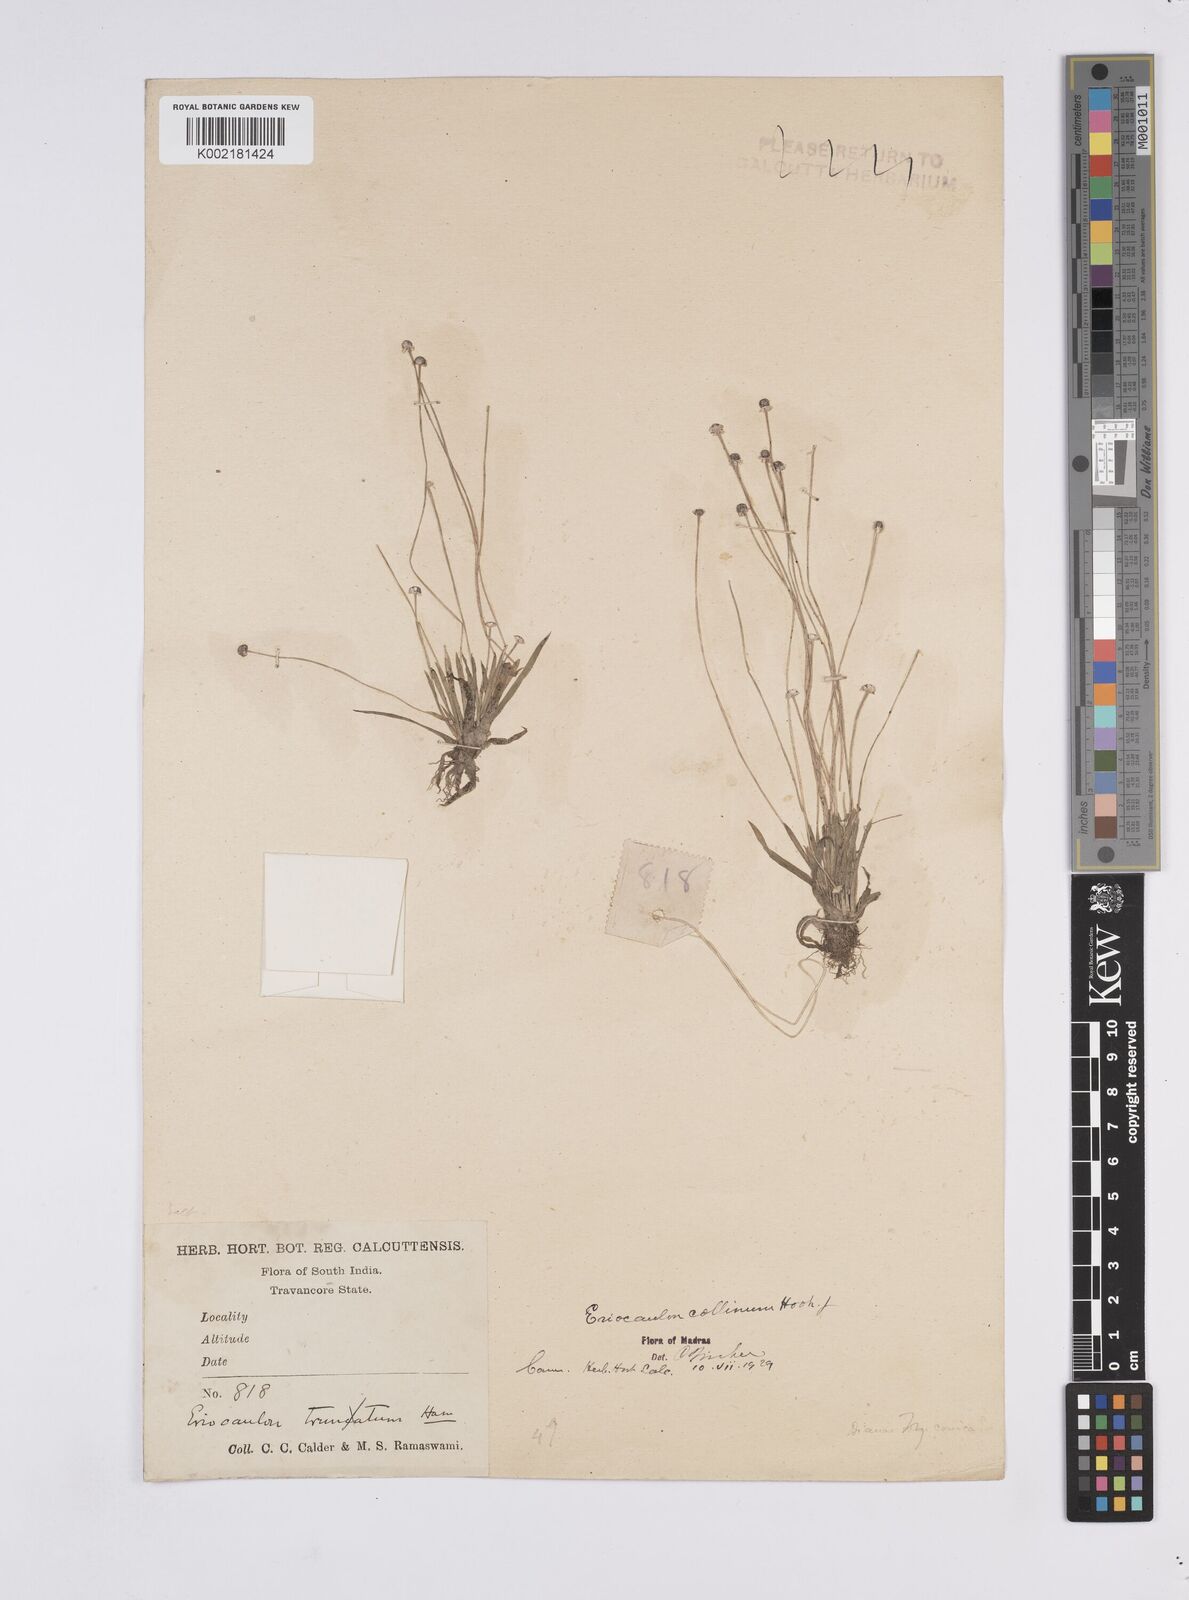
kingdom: Plantae
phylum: Tracheophyta
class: Liliopsida
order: Poales
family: Eriocaulaceae
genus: Eriocaulon
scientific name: Eriocaulon odoratum
